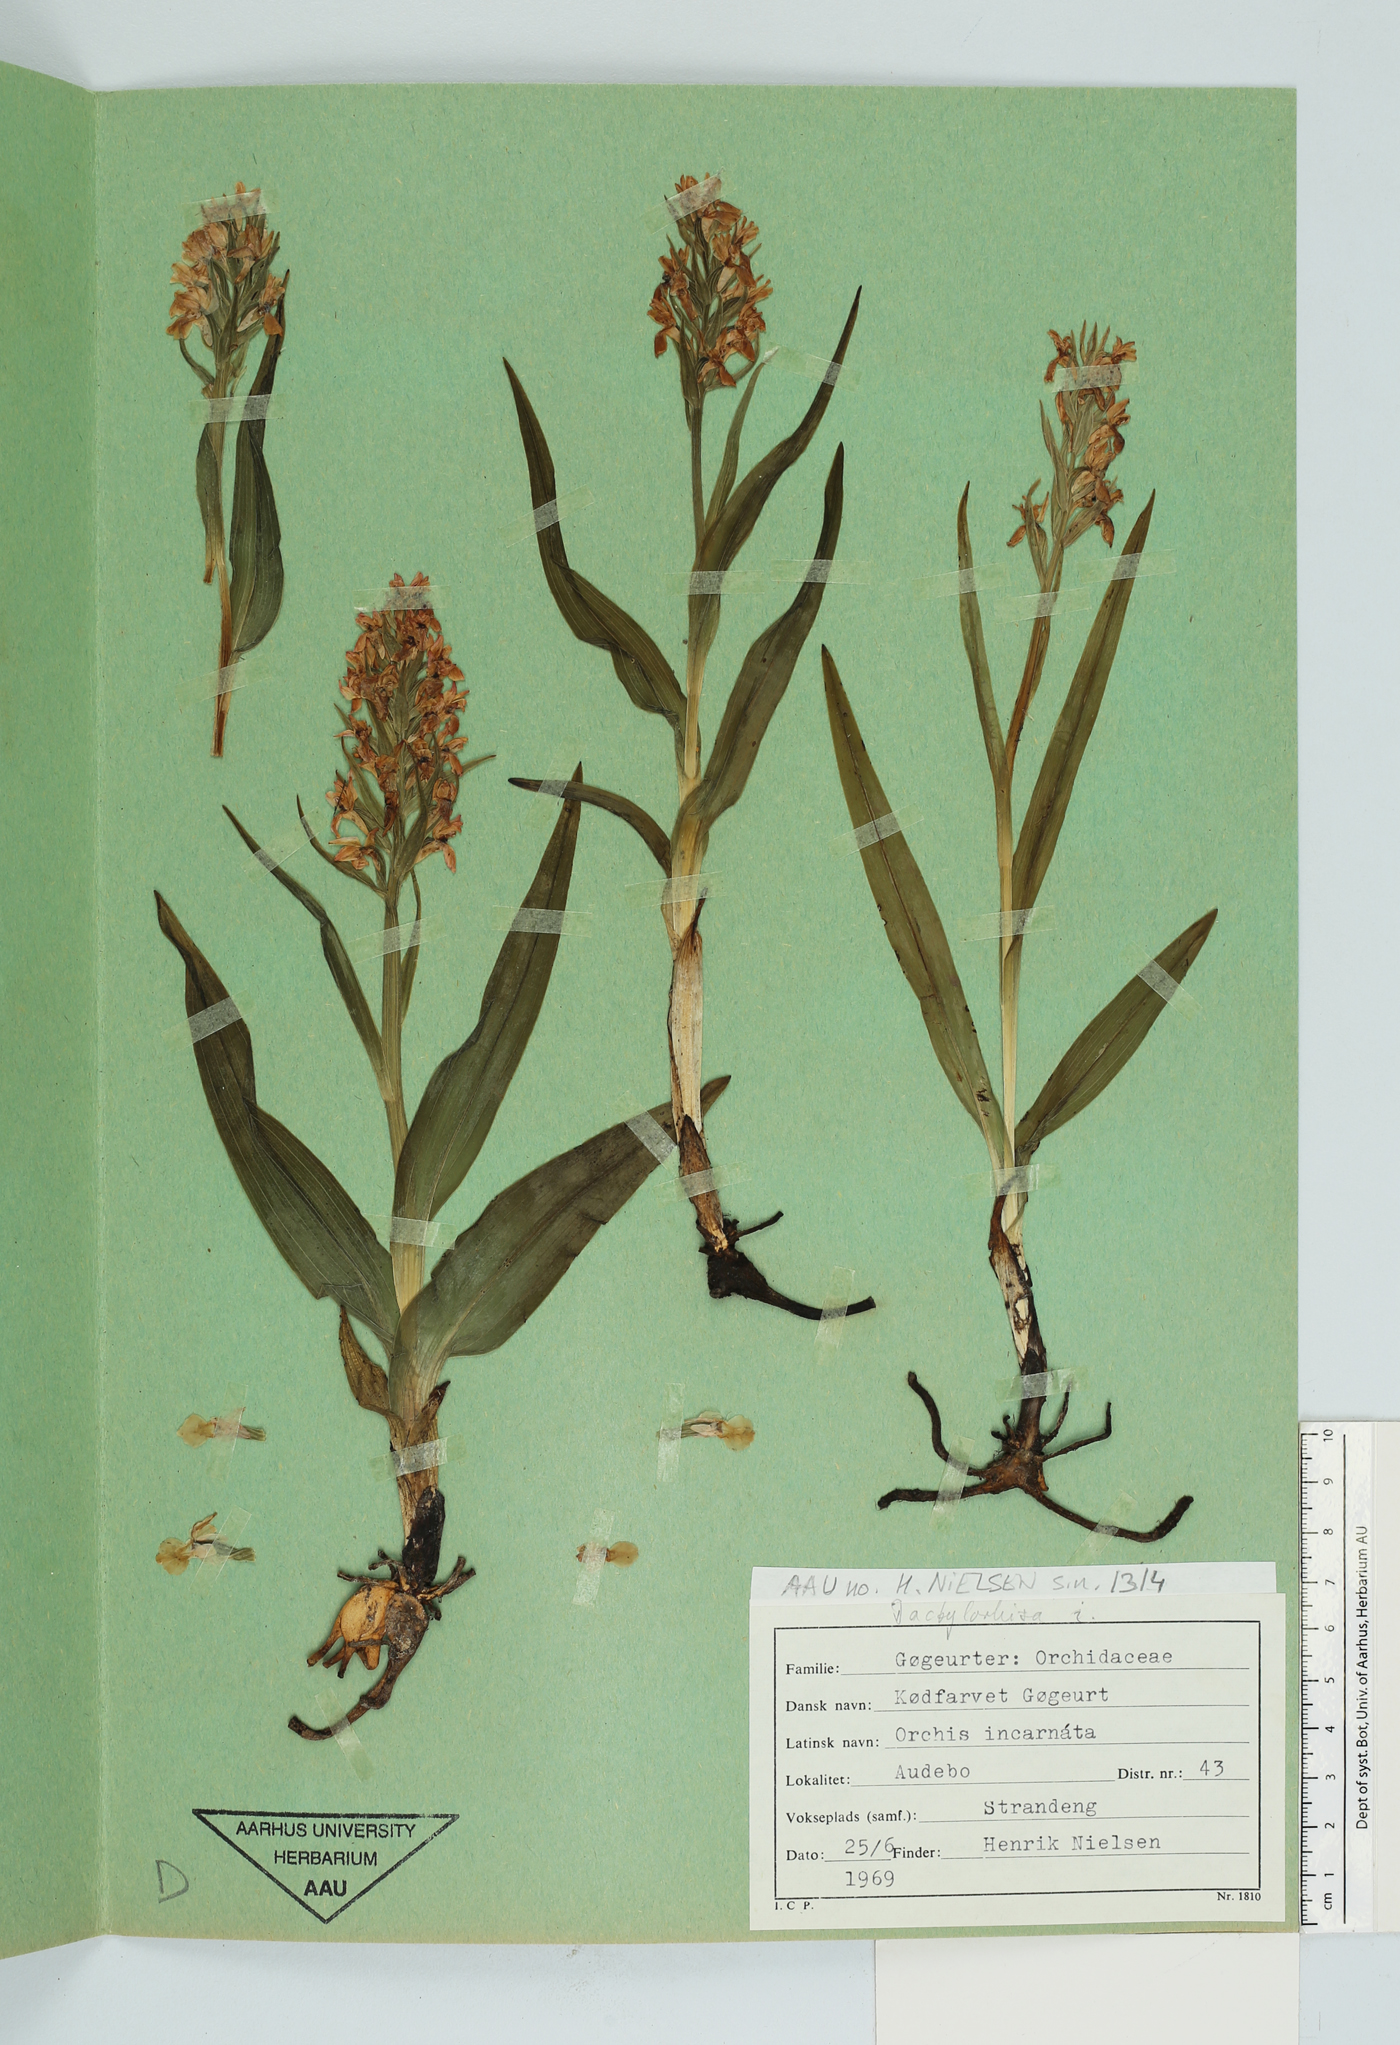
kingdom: Plantae
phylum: Tracheophyta
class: Liliopsida
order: Asparagales
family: Orchidaceae
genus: Dactylorhiza
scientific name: Dactylorhiza incarnata
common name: Early marsh-orchid
